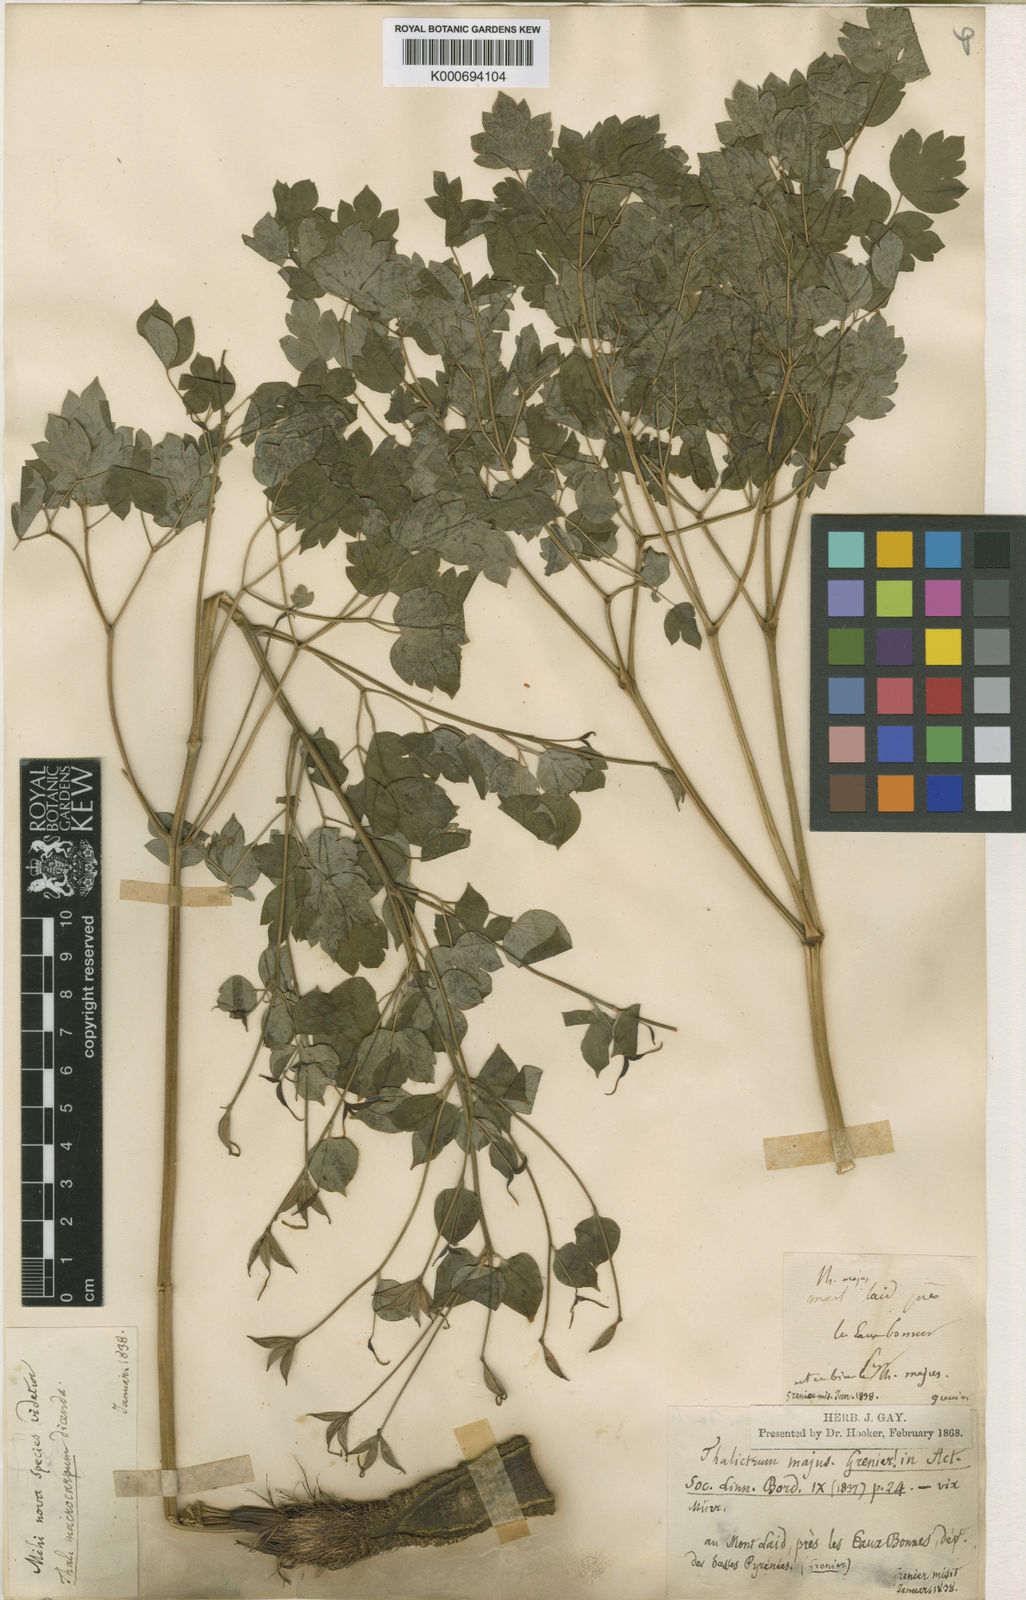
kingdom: Plantae
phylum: Tracheophyta
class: Magnoliopsida
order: Ranunculales
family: Ranunculaceae
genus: Thalictrum
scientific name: Thalictrum macrocarpum
